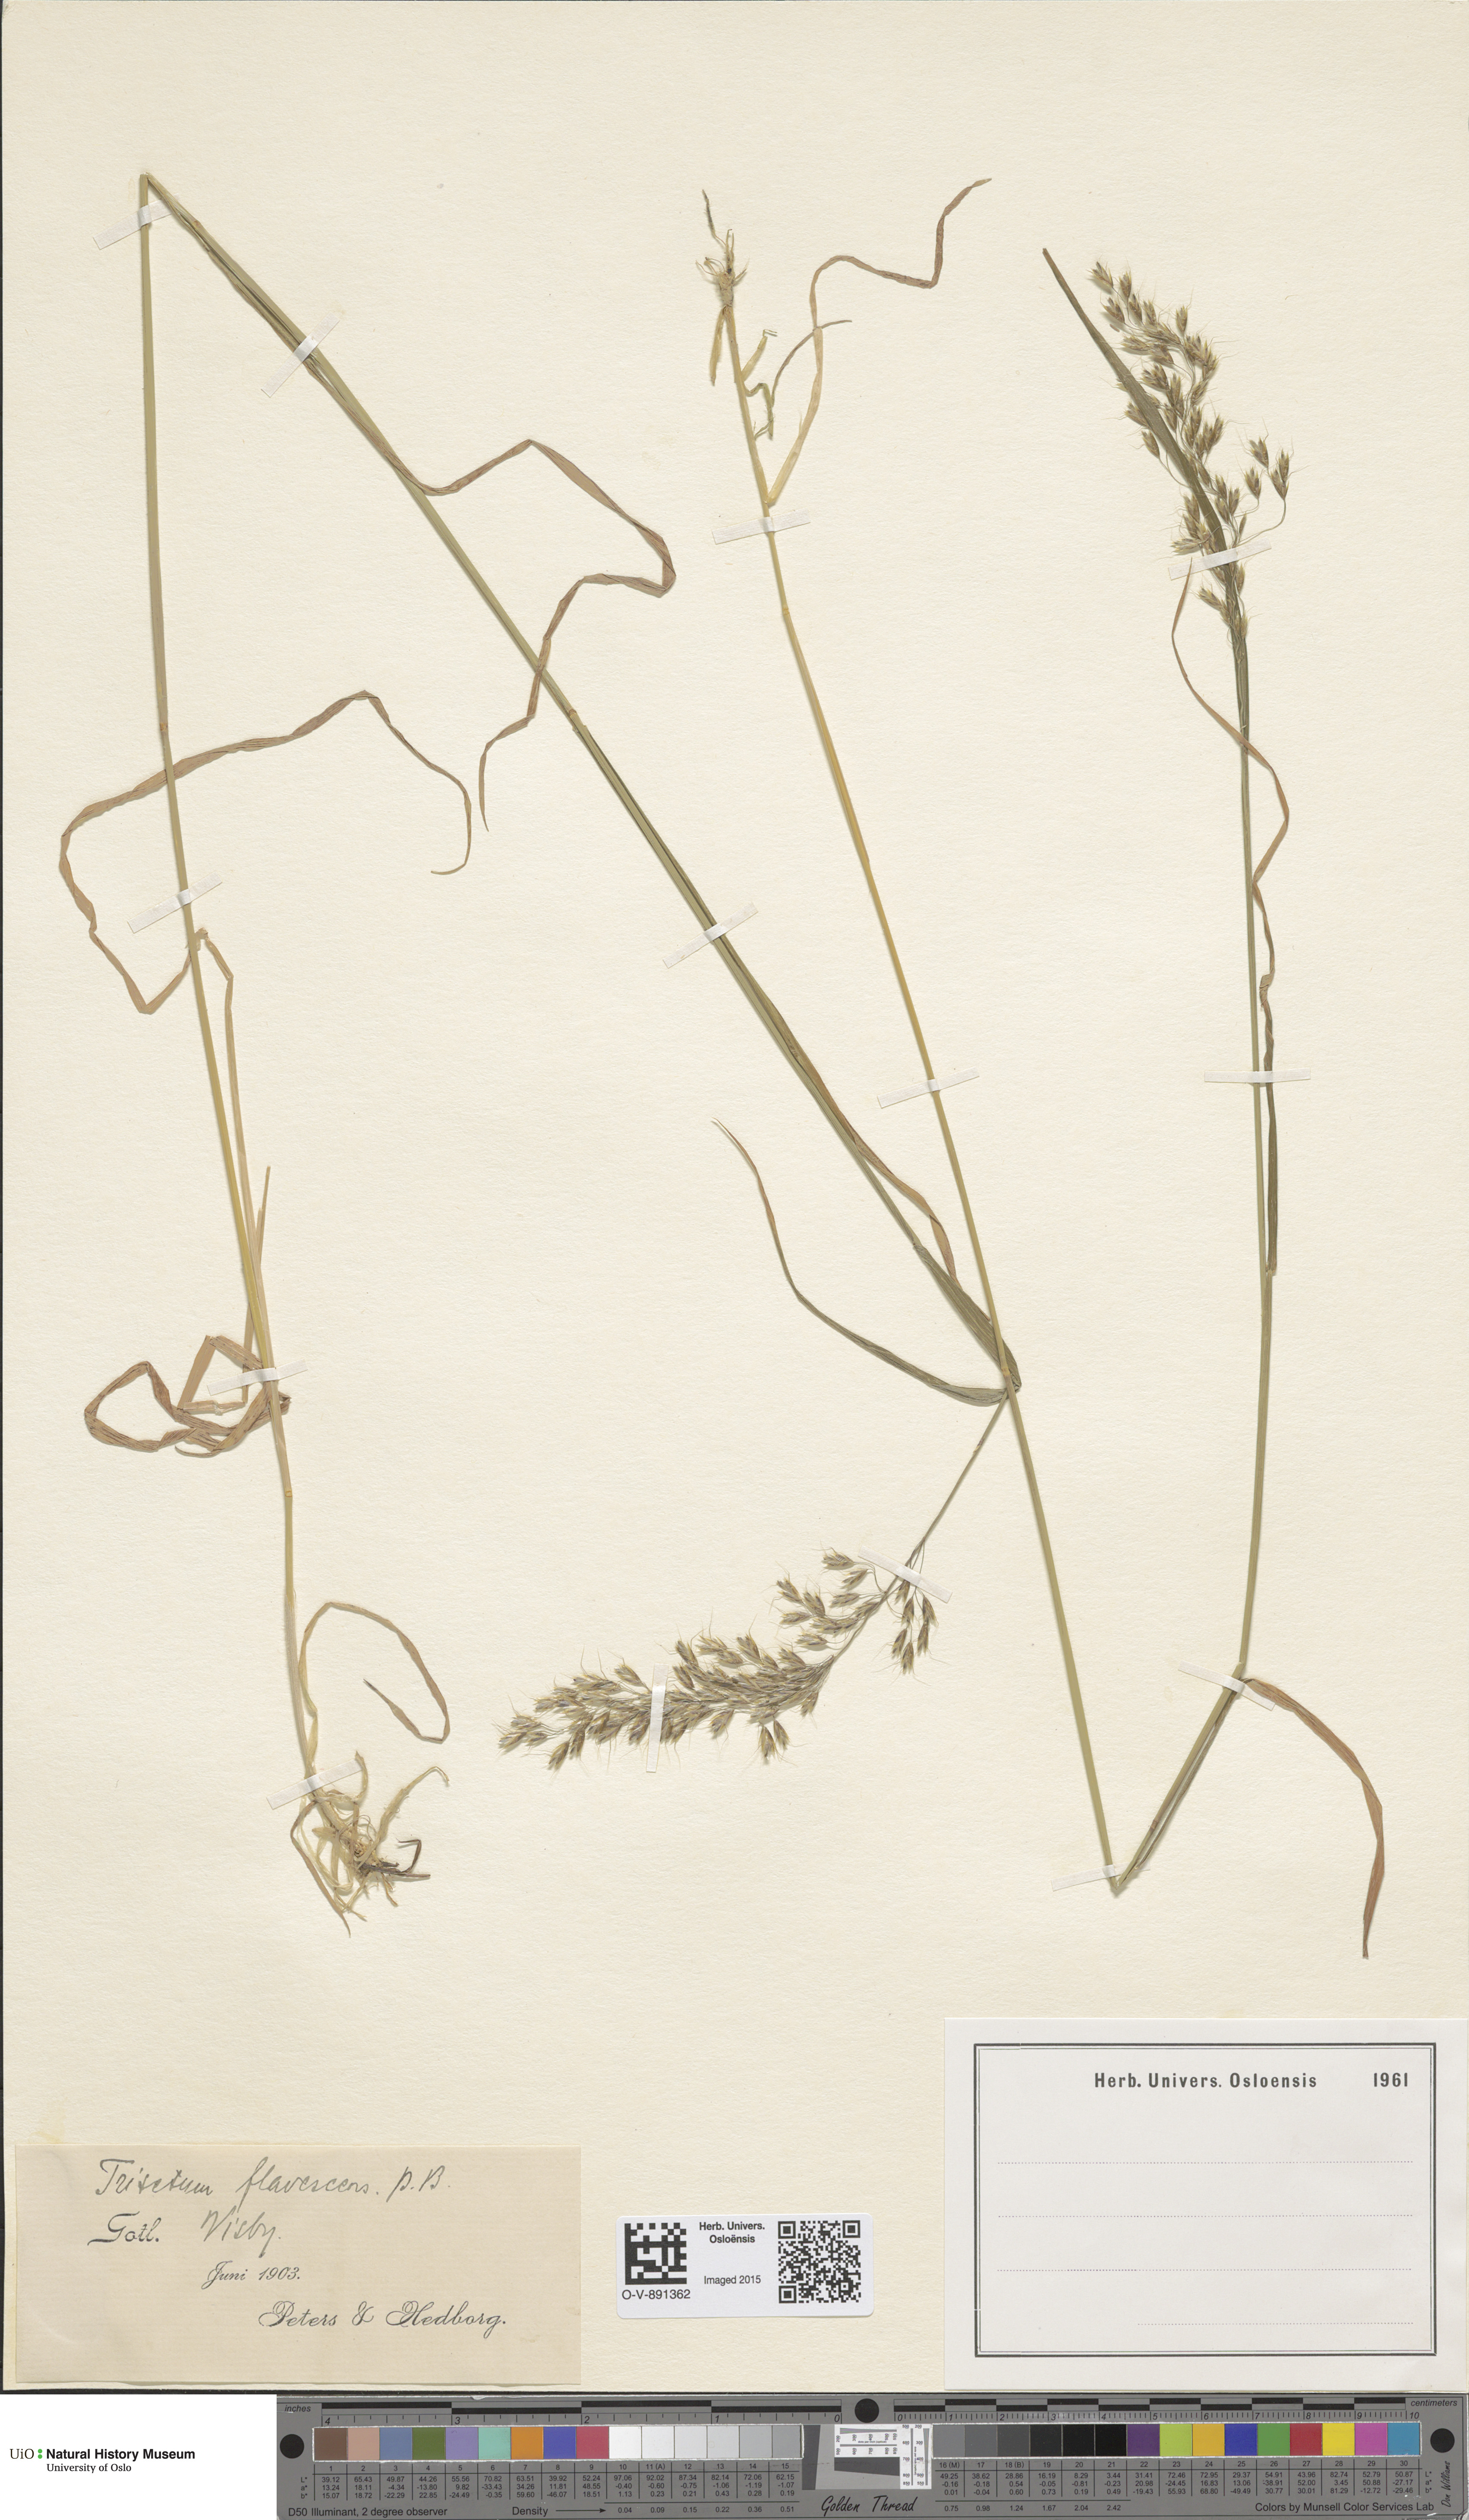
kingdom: Plantae
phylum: Tracheophyta
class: Liliopsida
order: Poales
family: Poaceae
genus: Trisetum
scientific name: Trisetum flavescens
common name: Yellow oat-grass
